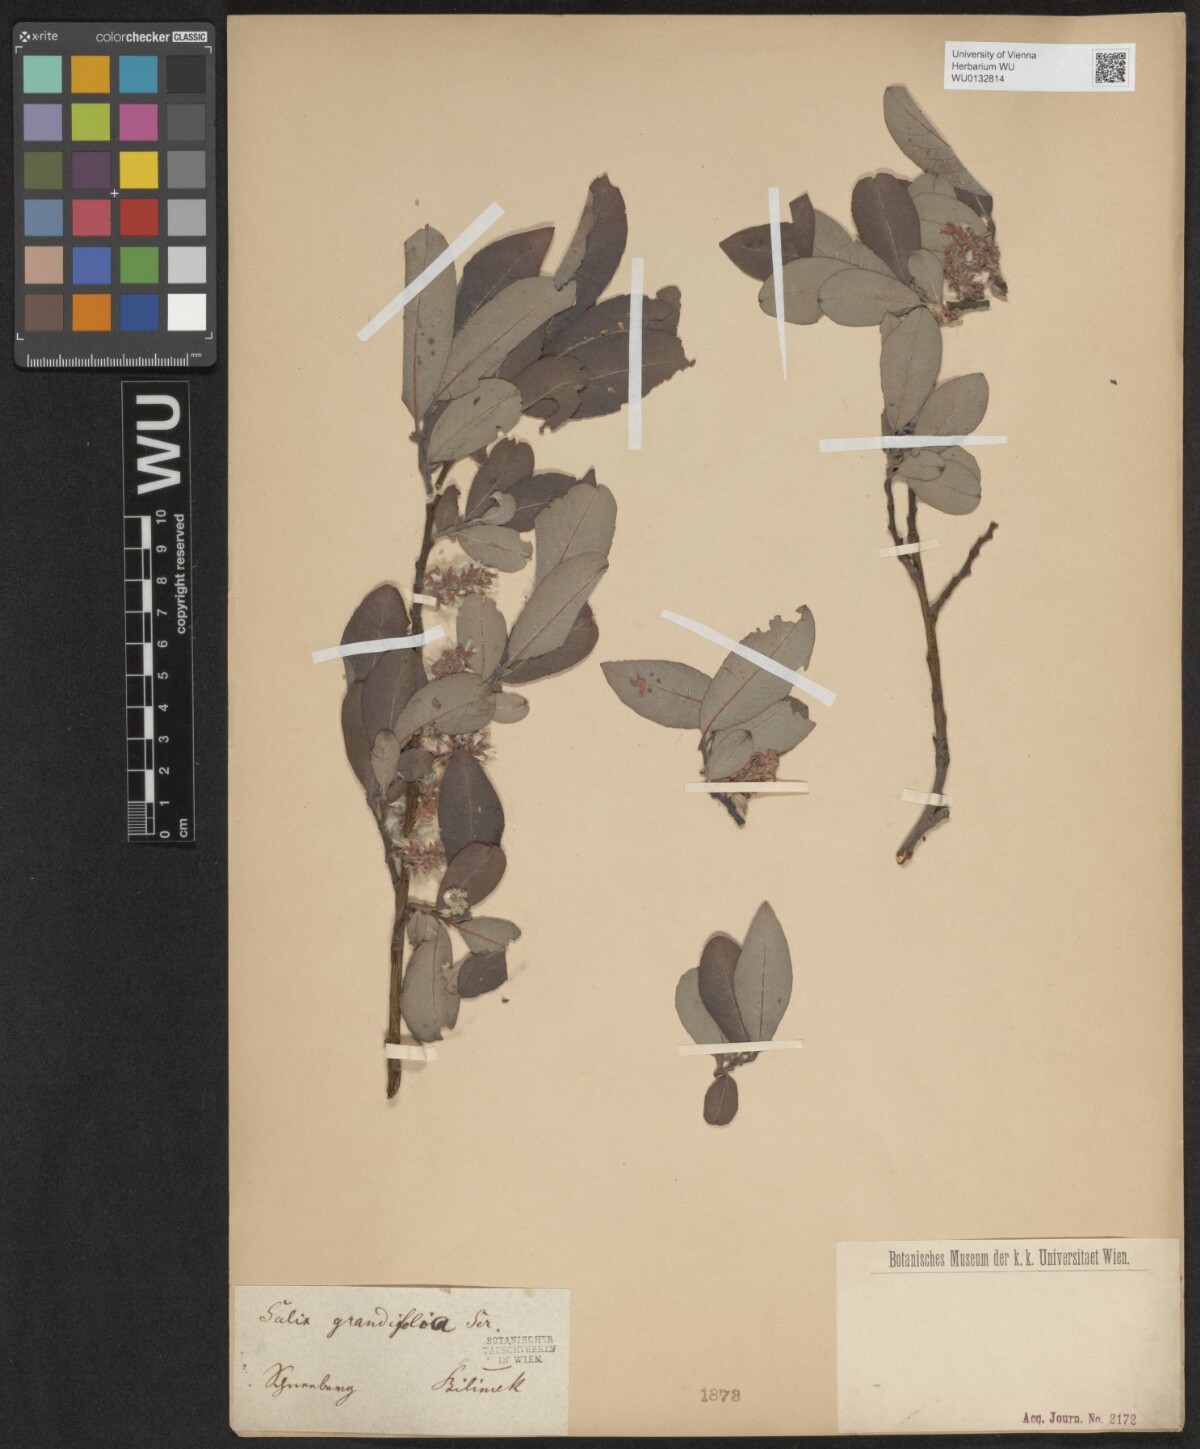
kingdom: Plantae
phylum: Tracheophyta
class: Magnoliopsida
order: Malpighiales
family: Salicaceae
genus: Salix
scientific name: Salix appendiculata
